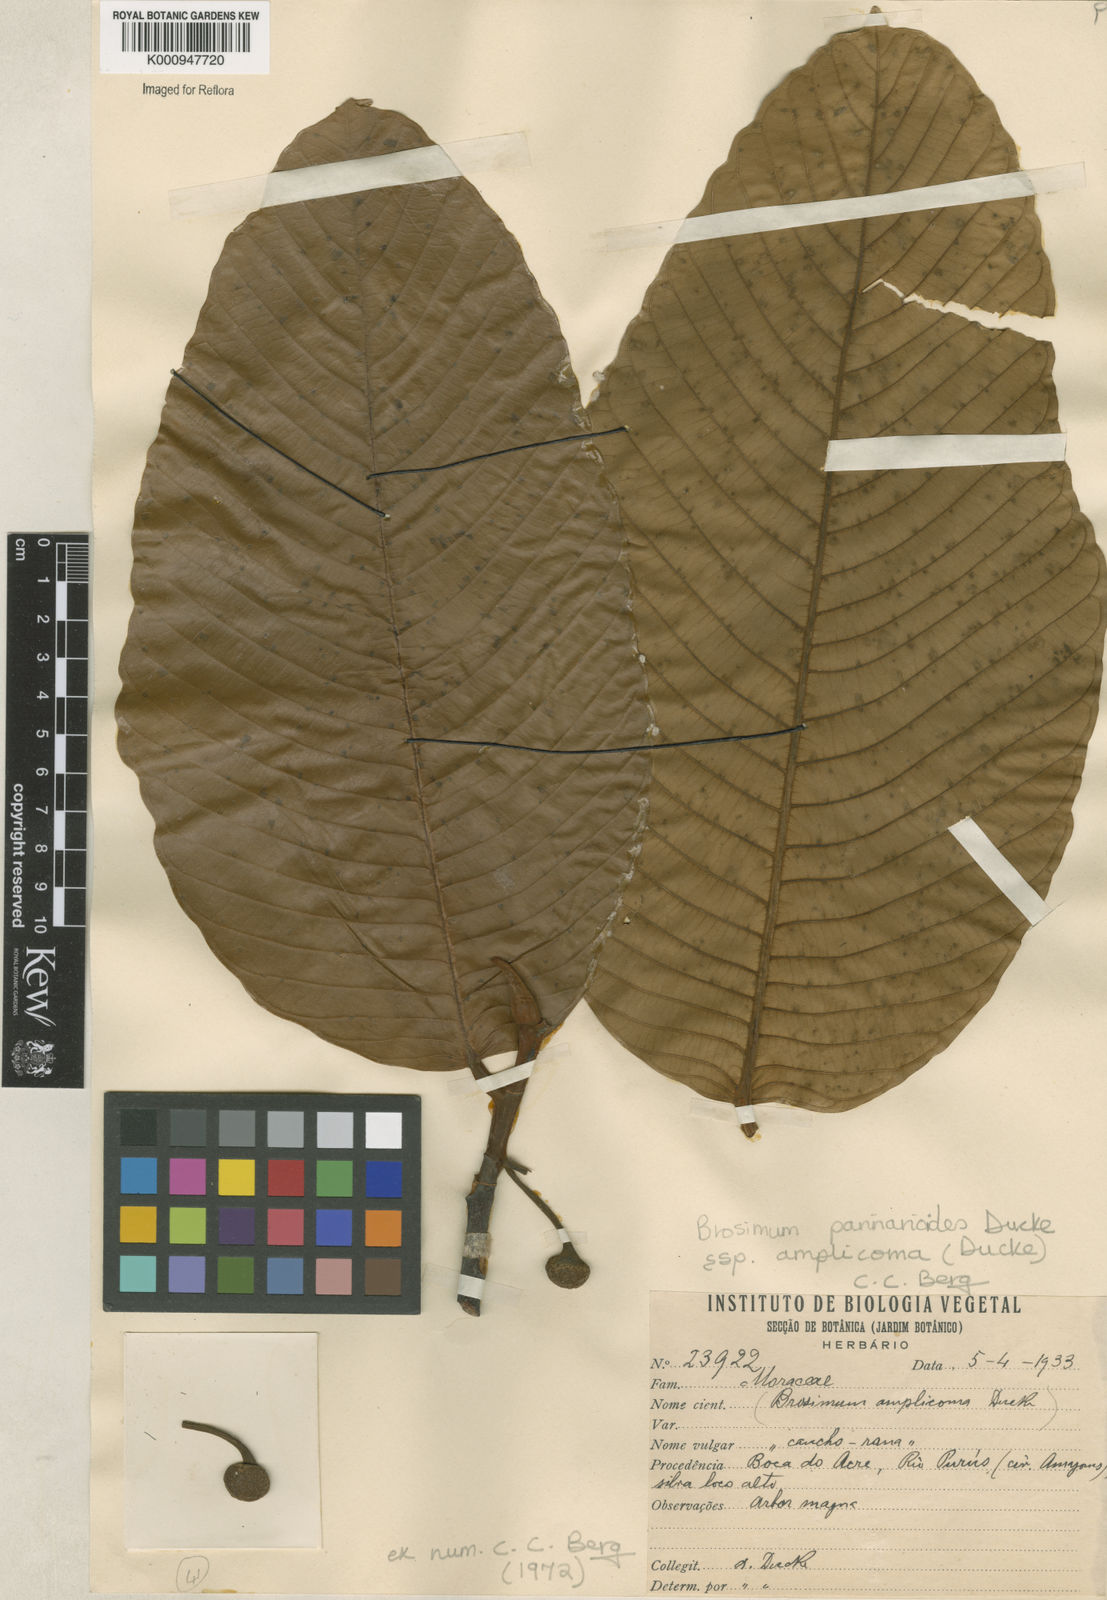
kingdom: Plantae
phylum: Tracheophyta
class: Magnoliopsida
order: Rosales
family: Moraceae
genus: Brosimum
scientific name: Brosimum parinarioides
